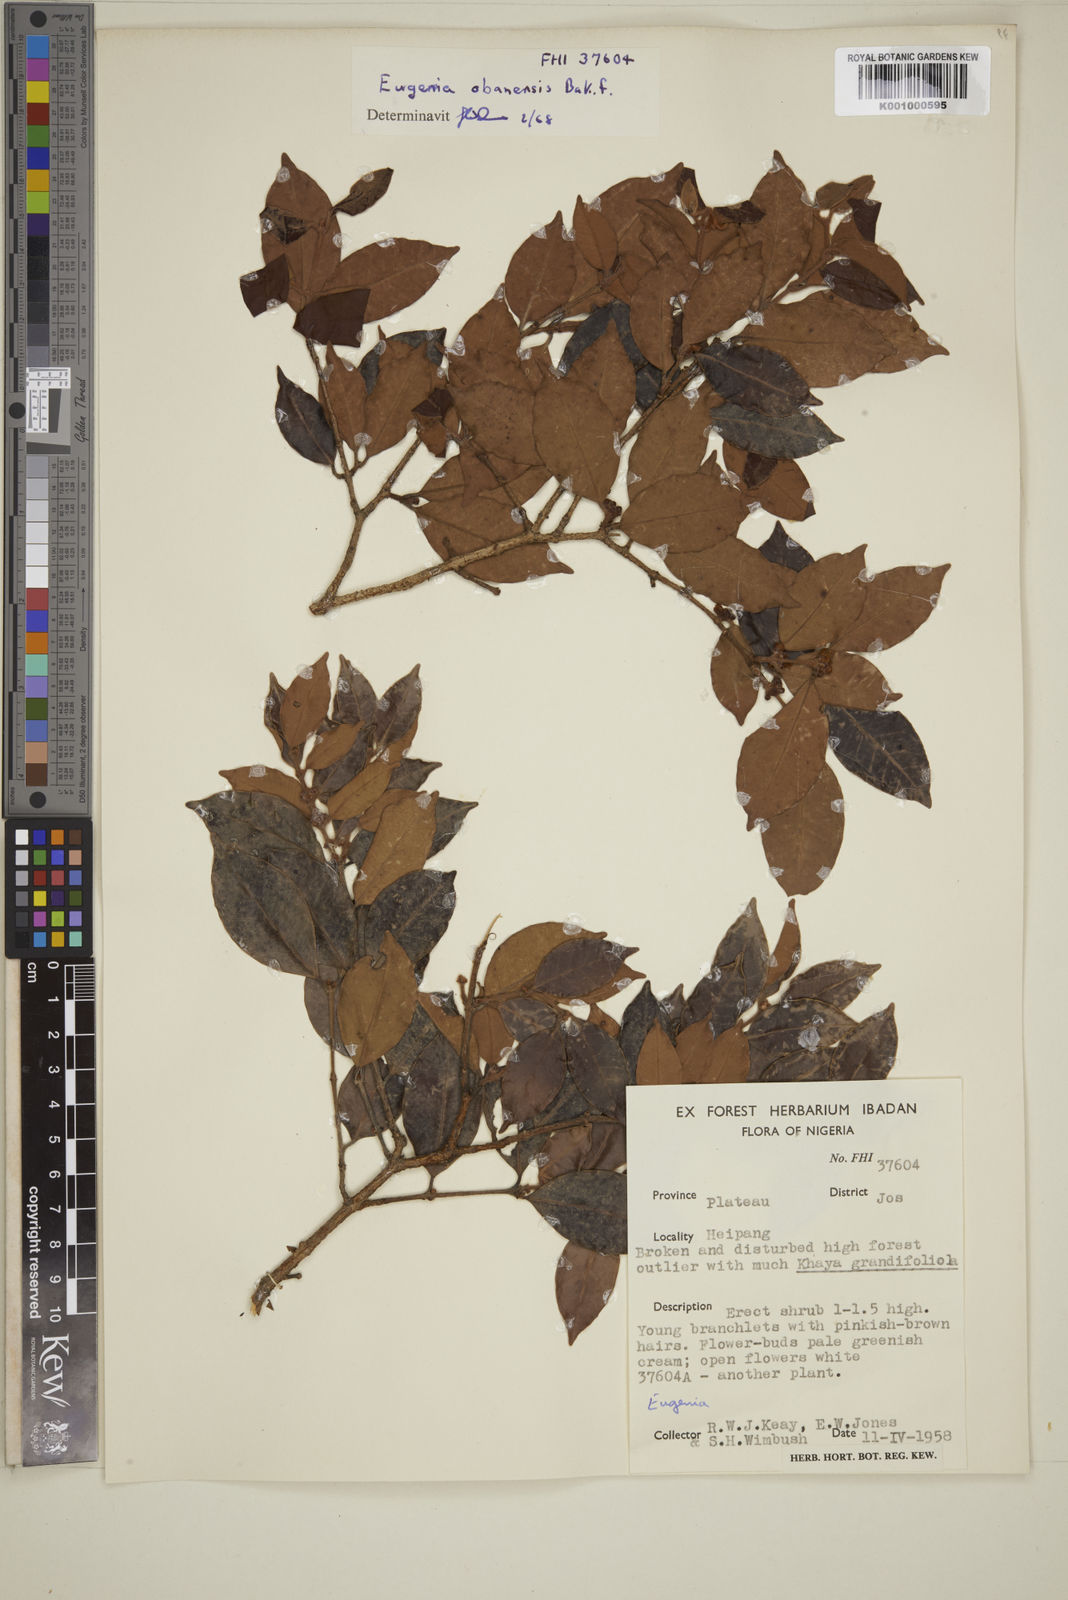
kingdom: Plantae
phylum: Tracheophyta
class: Magnoliopsida
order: Myrtales
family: Myrtaceae
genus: Eugenia
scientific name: Eugenia obanensis
